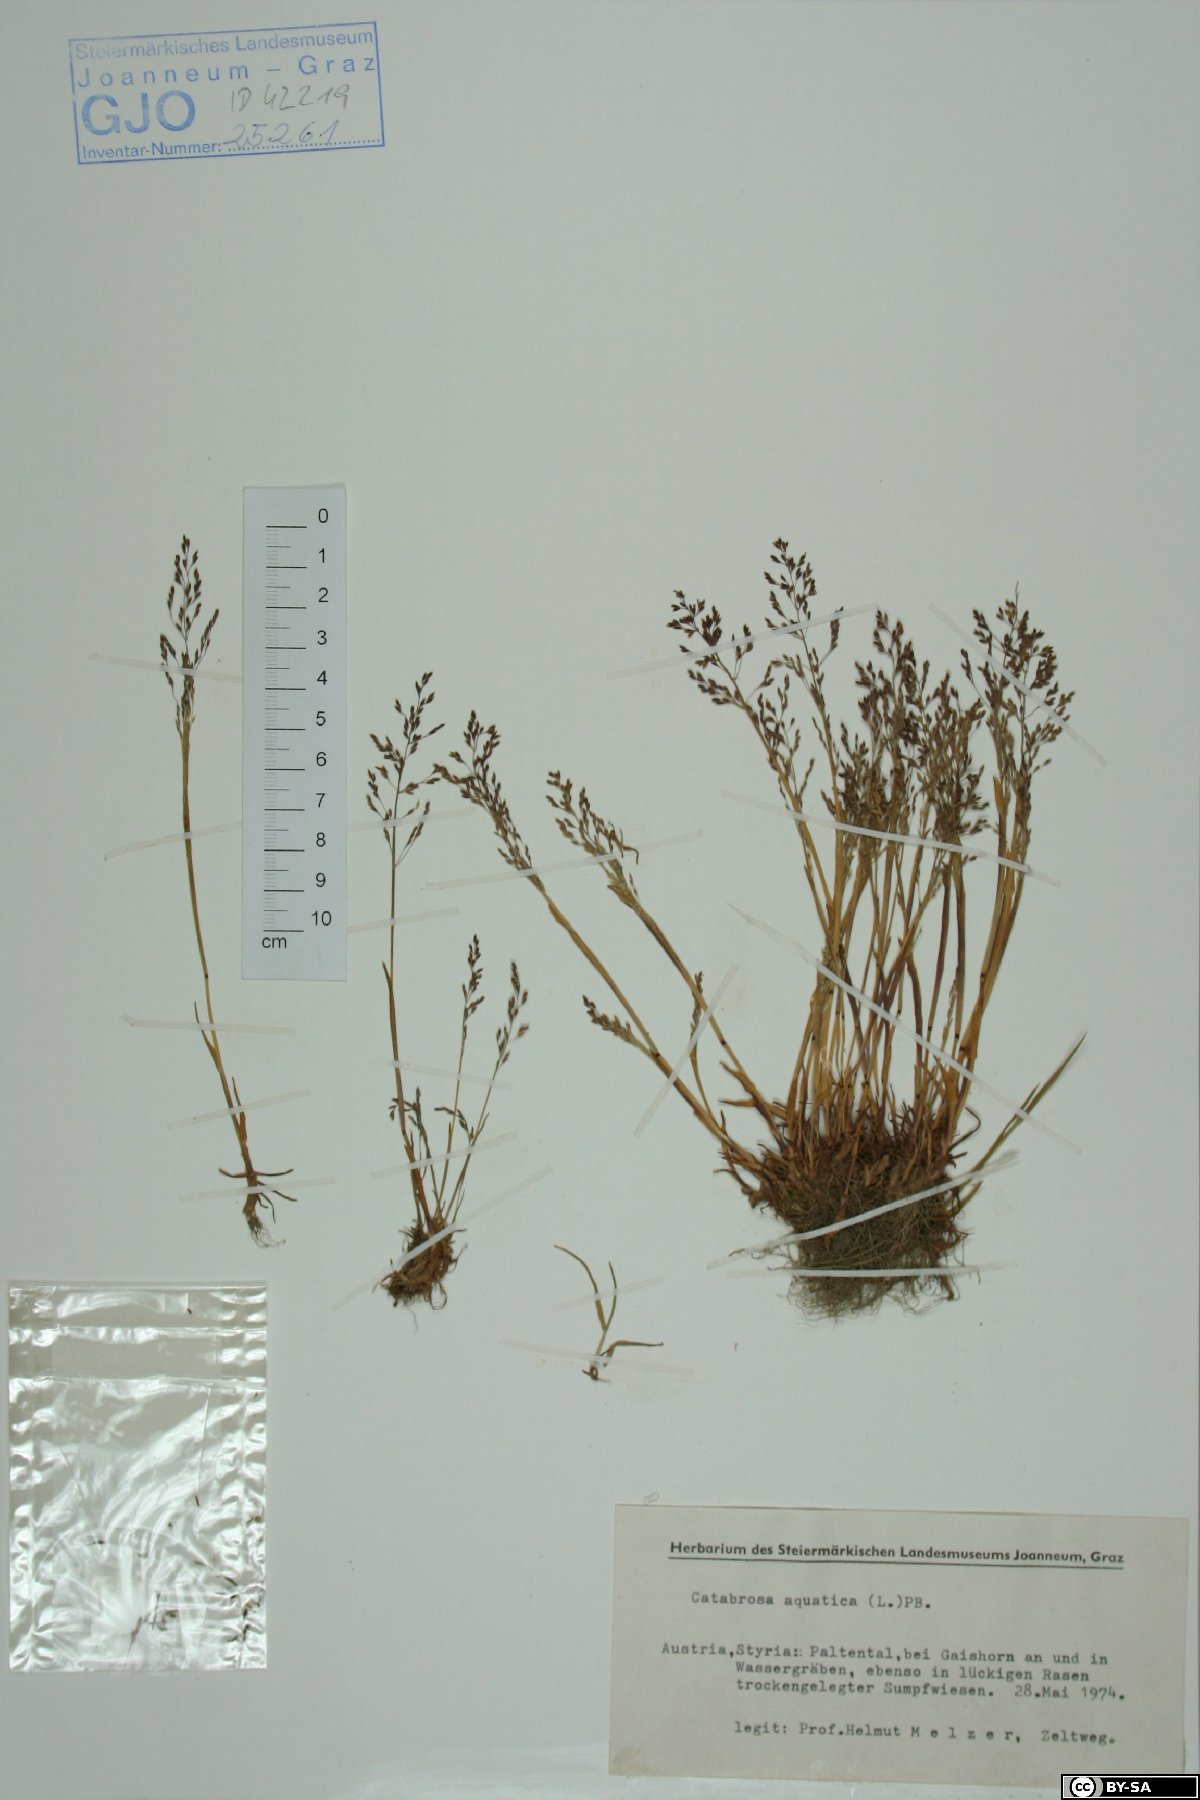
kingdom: Plantae
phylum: Tracheophyta
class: Liliopsida
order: Poales
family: Poaceae
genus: Catabrosa
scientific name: Catabrosa aquatica
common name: Whorl-grass
